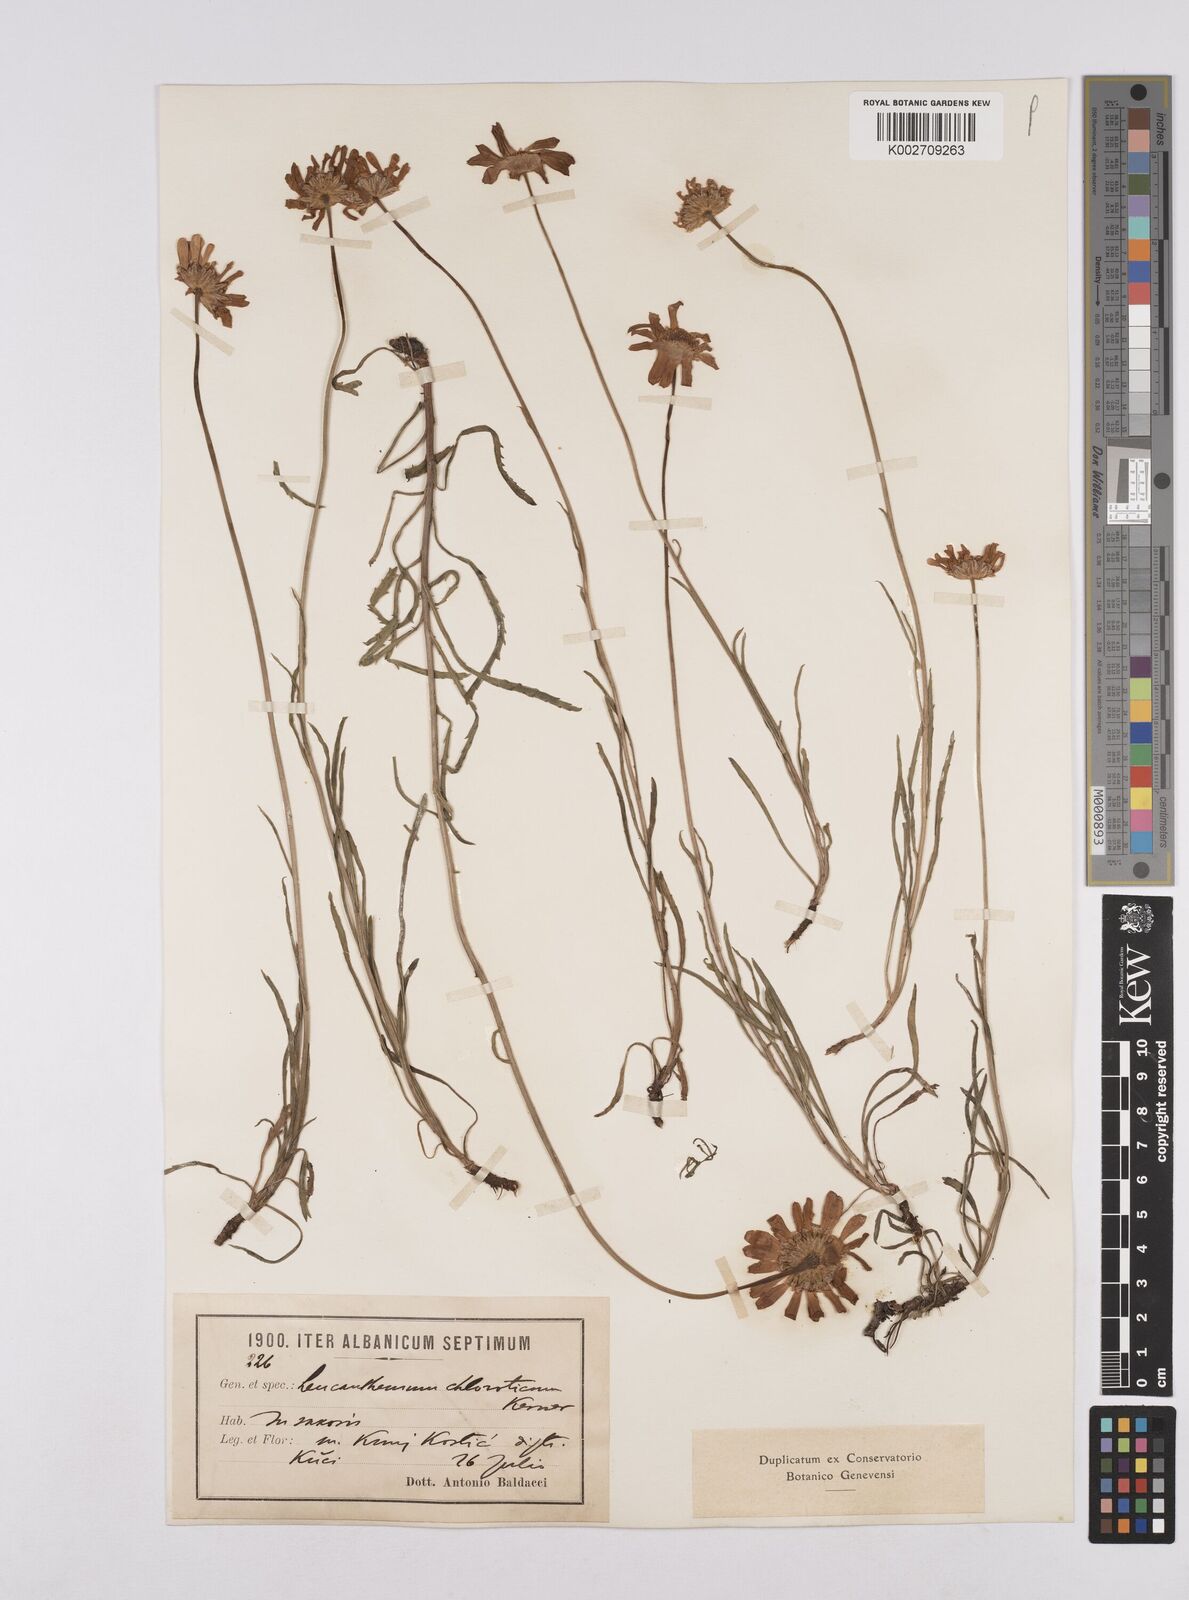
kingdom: Plantae
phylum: Tracheophyta
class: Magnoliopsida
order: Asterales
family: Asteraceae
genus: Leucanthemum
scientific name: Leucanthemum chloroticum
